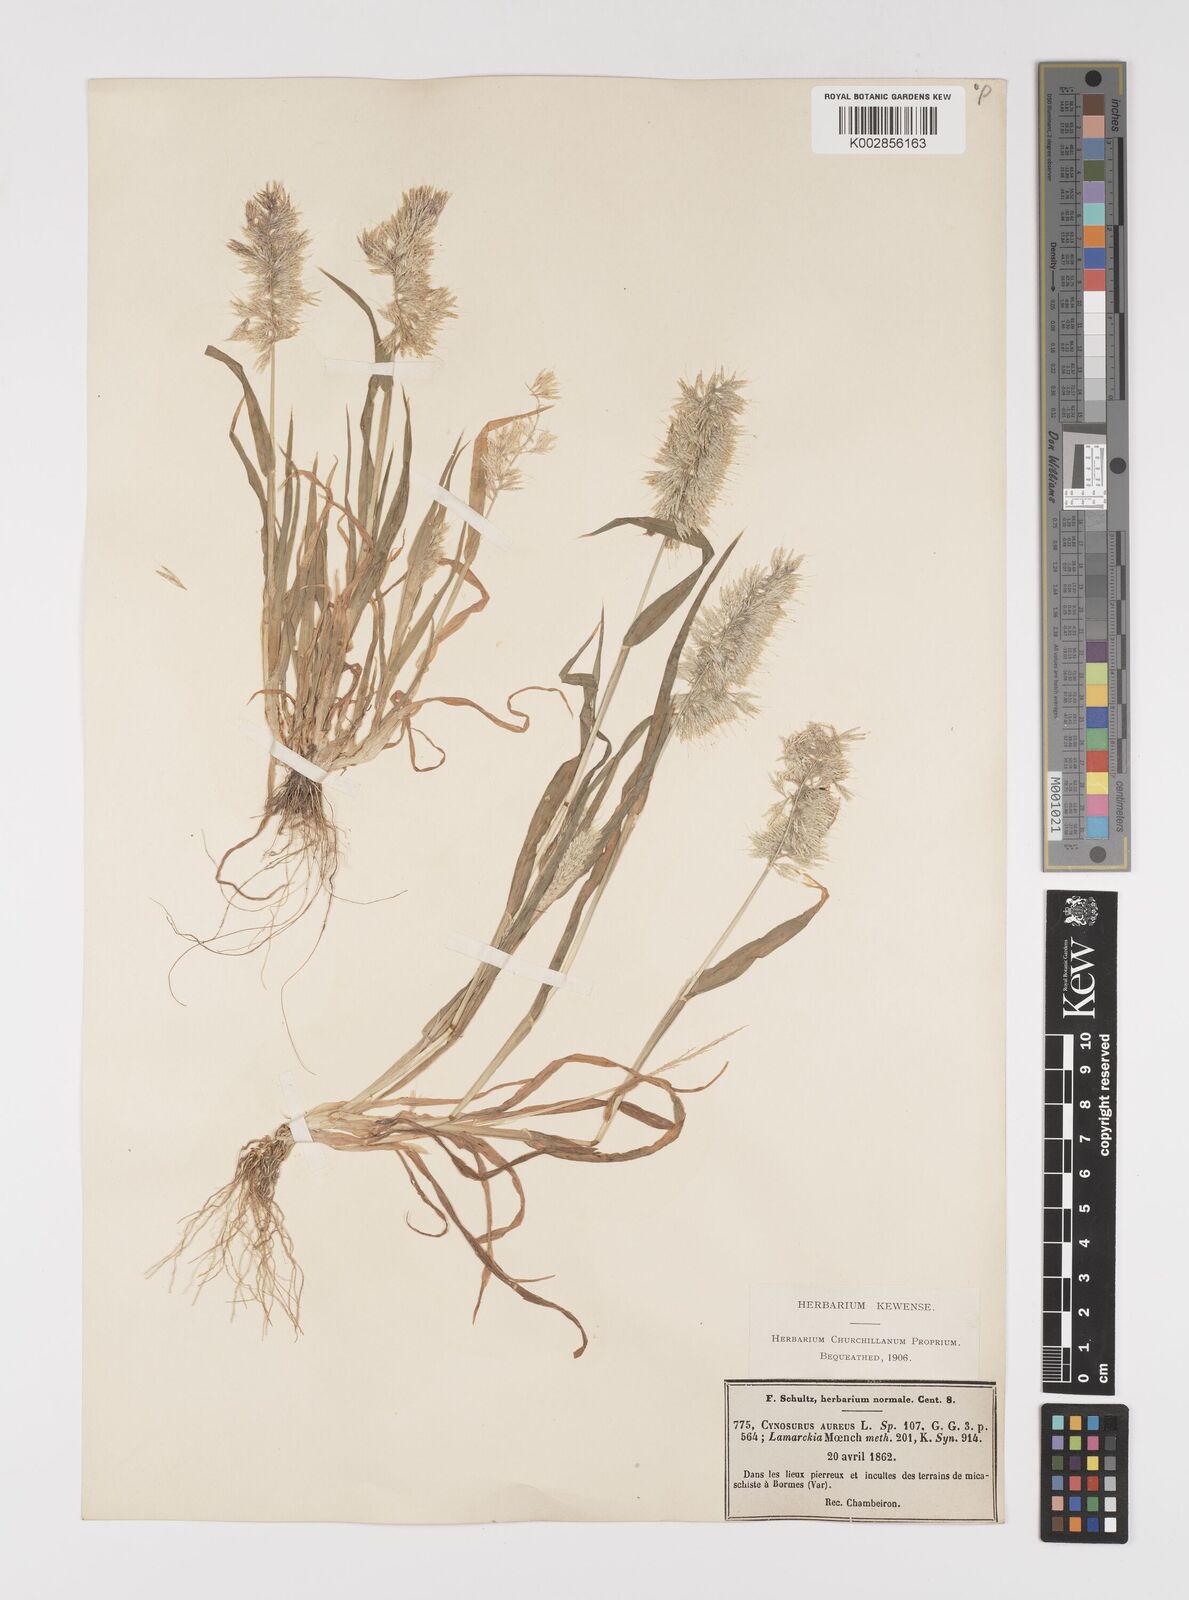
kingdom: Plantae
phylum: Tracheophyta
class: Liliopsida
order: Poales
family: Poaceae
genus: Lamarckia
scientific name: Lamarckia aurea
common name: Golden dog's-tail
